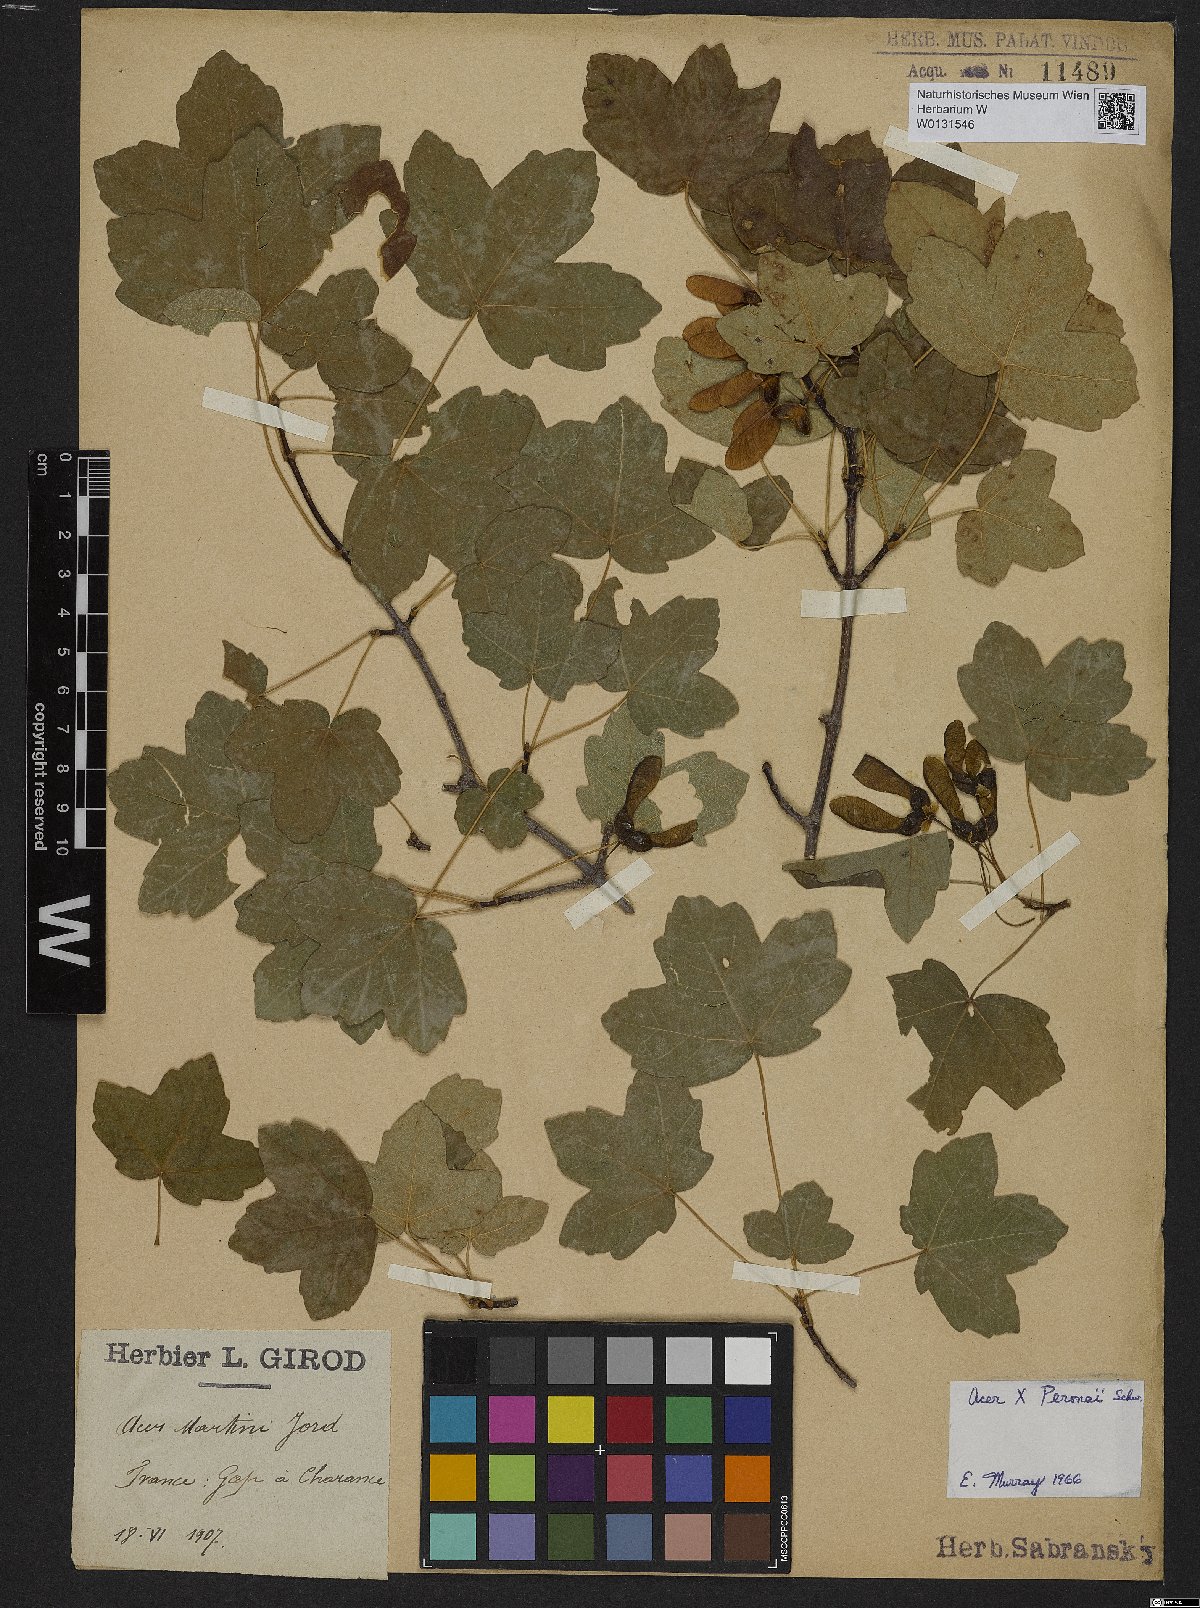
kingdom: Plantae
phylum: Tracheophyta
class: Magnoliopsida
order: Sapindales
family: Aceraceae
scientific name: Aceraceae
